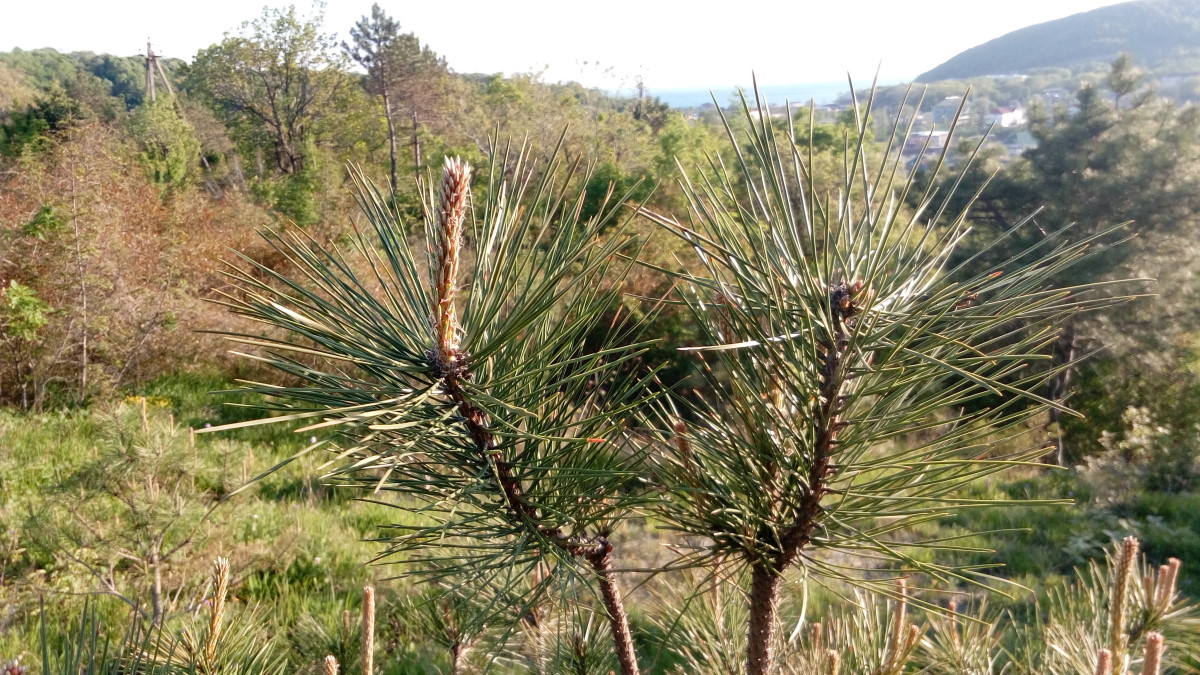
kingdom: Plantae
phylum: Tracheophyta
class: Pinopsida
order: Pinales
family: Pinaceae
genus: Pinus
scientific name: Pinus nigra
